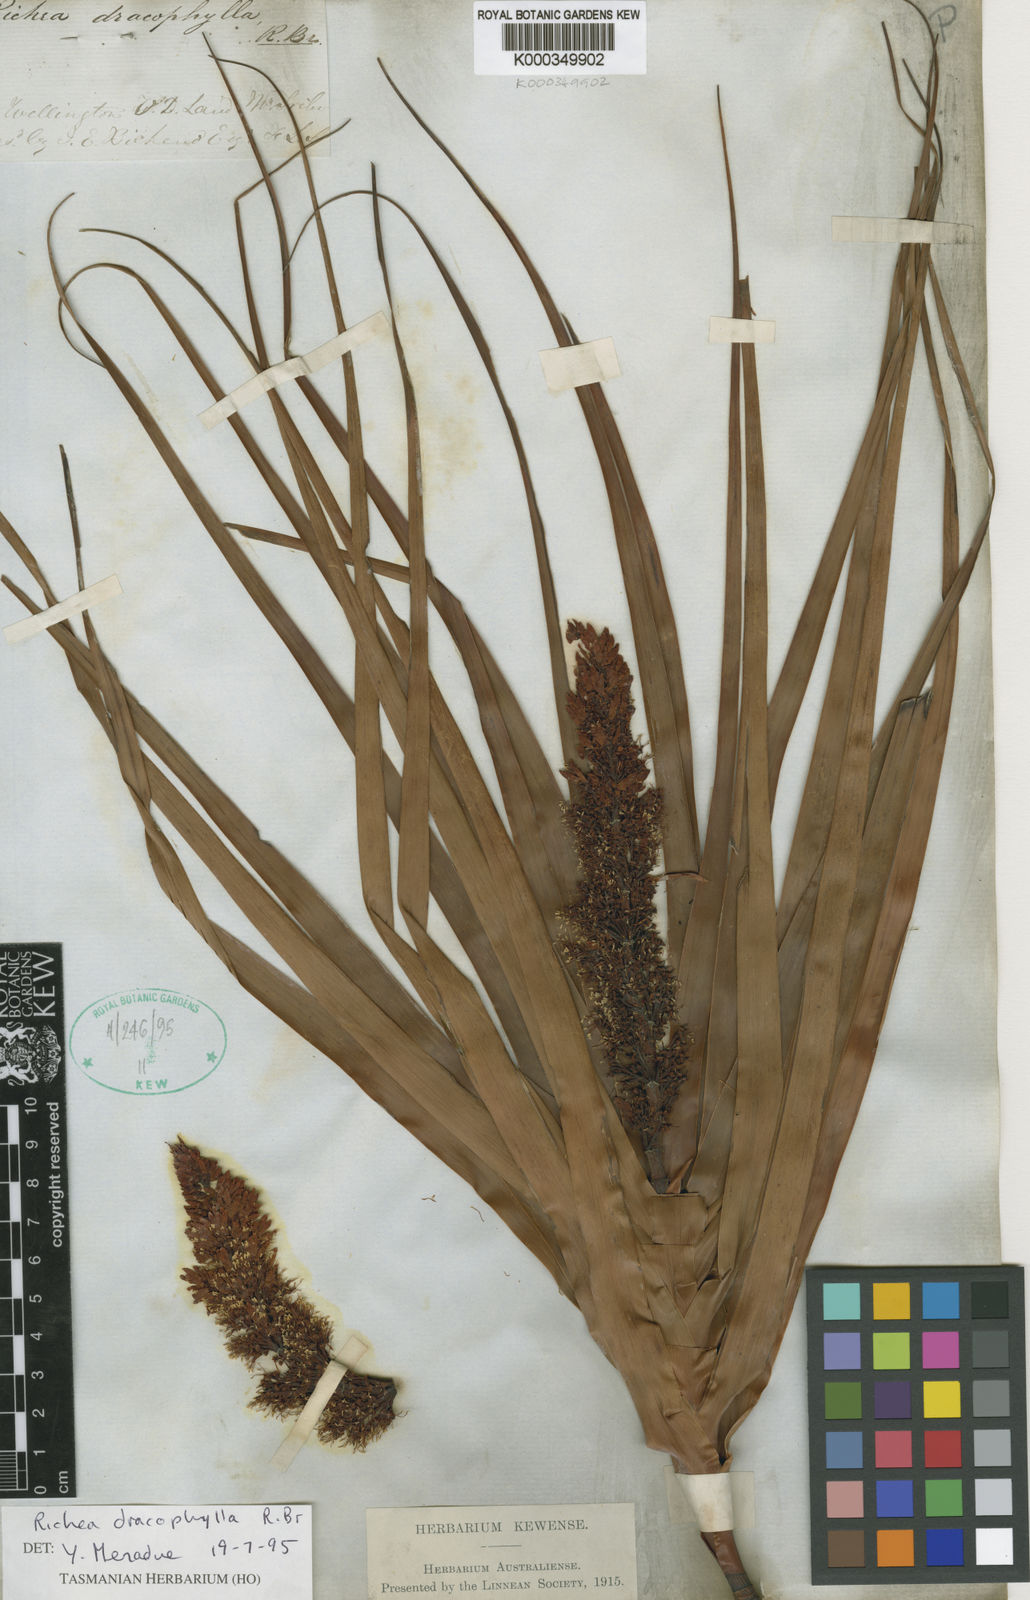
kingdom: Plantae
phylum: Tracheophyta
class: Magnoliopsida
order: Ericales
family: Ericaceae
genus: Dracophyllum
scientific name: Dracophyllum desgrazii
